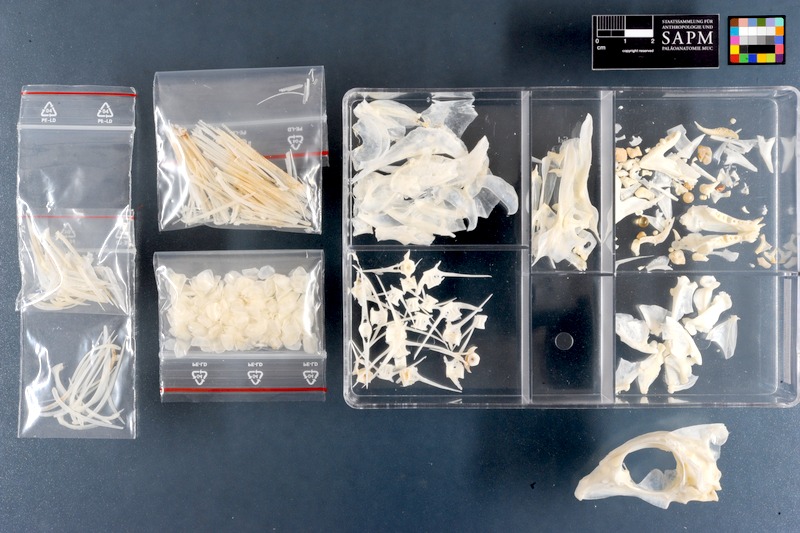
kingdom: Animalia
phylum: Chordata
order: Perciformes
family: Lethrinidae
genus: Lethrinus
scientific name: Lethrinus mahsena
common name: Sky emperor
